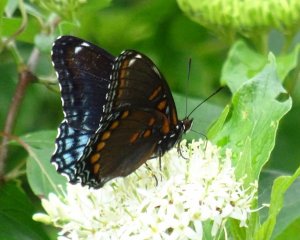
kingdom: Animalia
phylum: Arthropoda
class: Insecta
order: Lepidoptera
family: Nymphalidae
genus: Limenitis
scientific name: Limenitis astyanax
